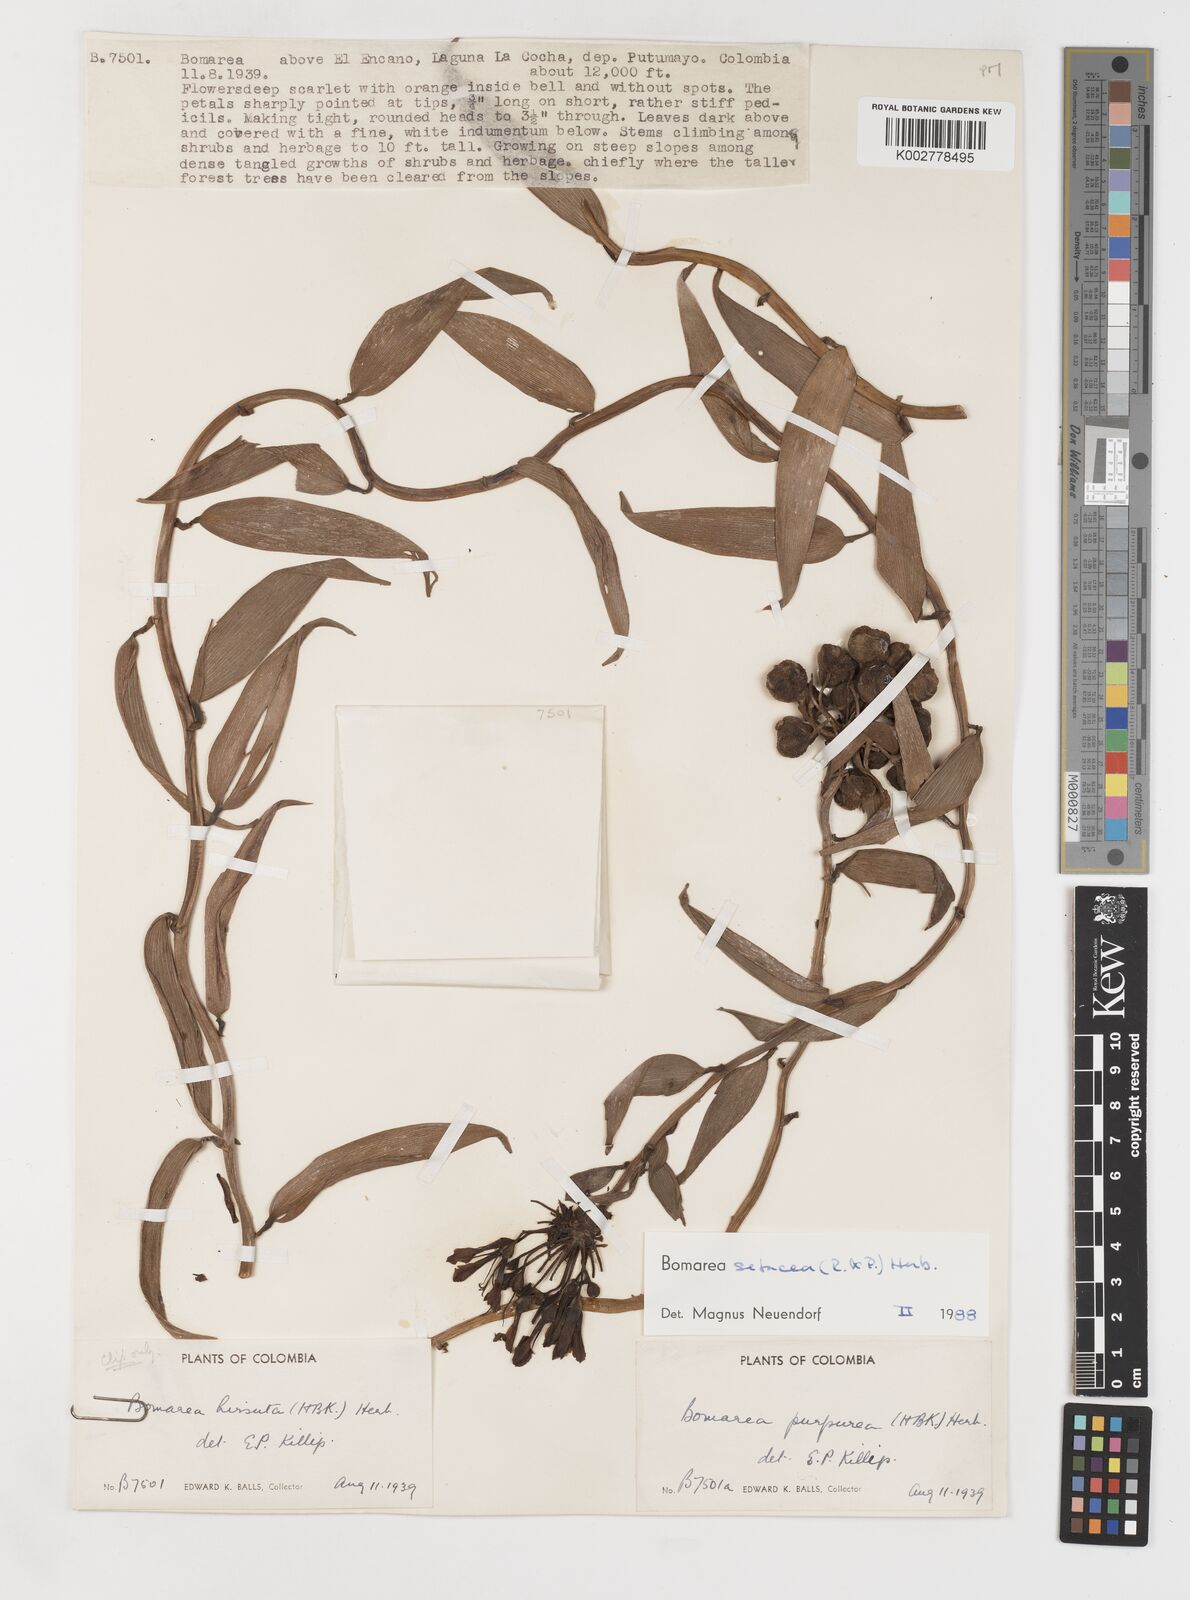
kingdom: Plantae
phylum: Tracheophyta
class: Liliopsida
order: Liliales
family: Alstroemeriaceae
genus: Bomarea
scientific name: Bomarea setacea
